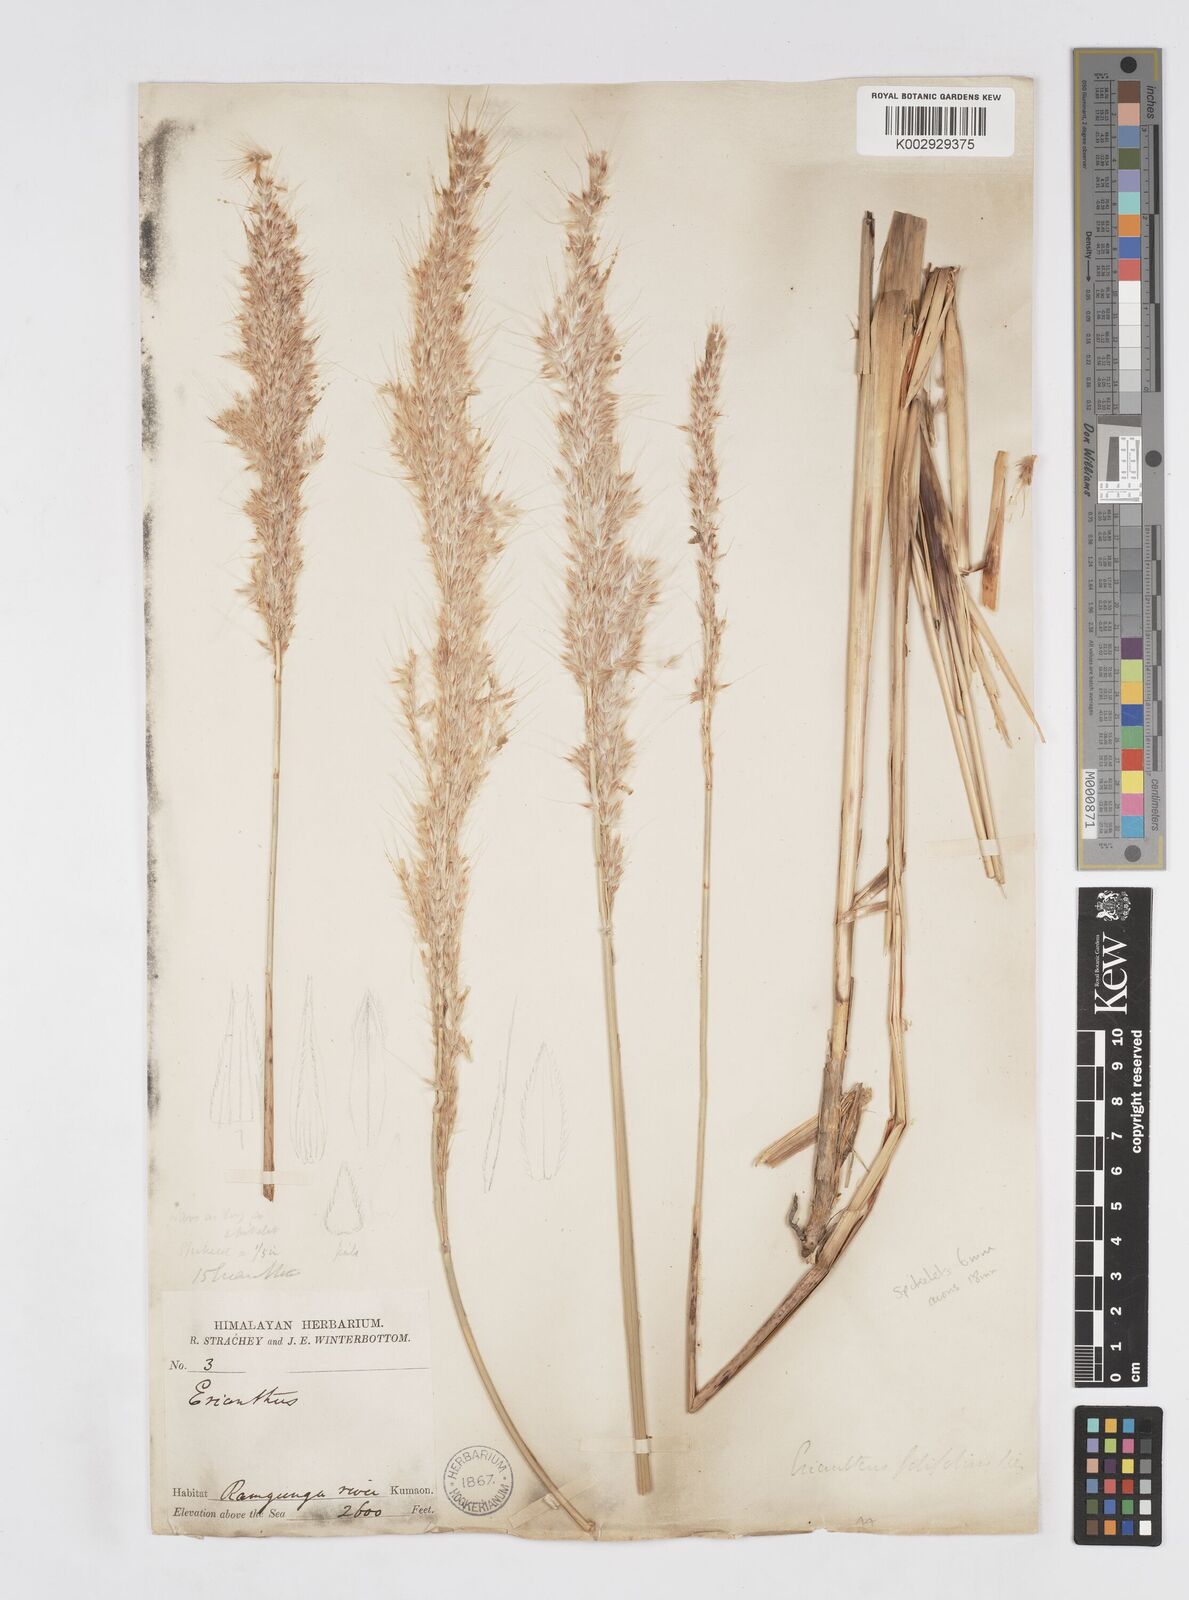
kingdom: Plantae
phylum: Tracheophyta
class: Liliopsida
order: Poales
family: Poaceae
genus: Saccharum
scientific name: Saccharum filifolium
